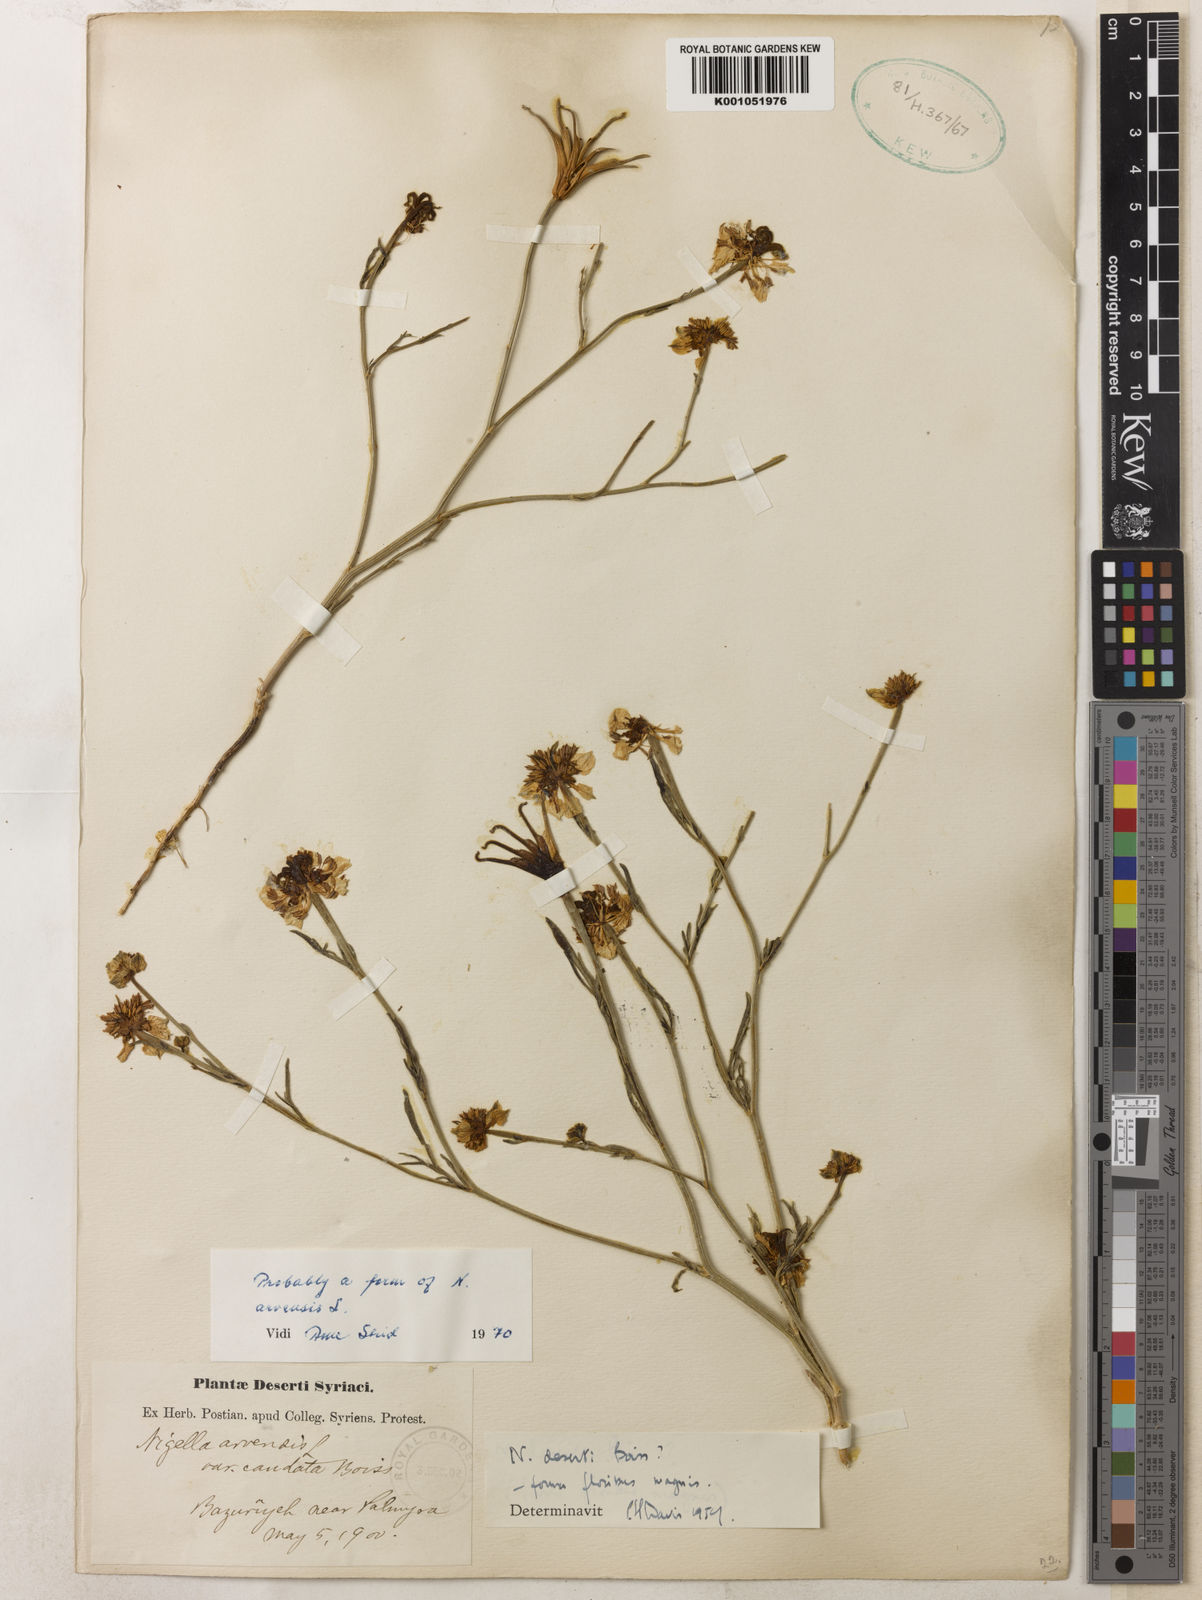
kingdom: Plantae
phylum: Tracheophyta
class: Magnoliopsida
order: Ranunculales
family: Ranunculaceae
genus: Nigella
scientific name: Nigella deserti
